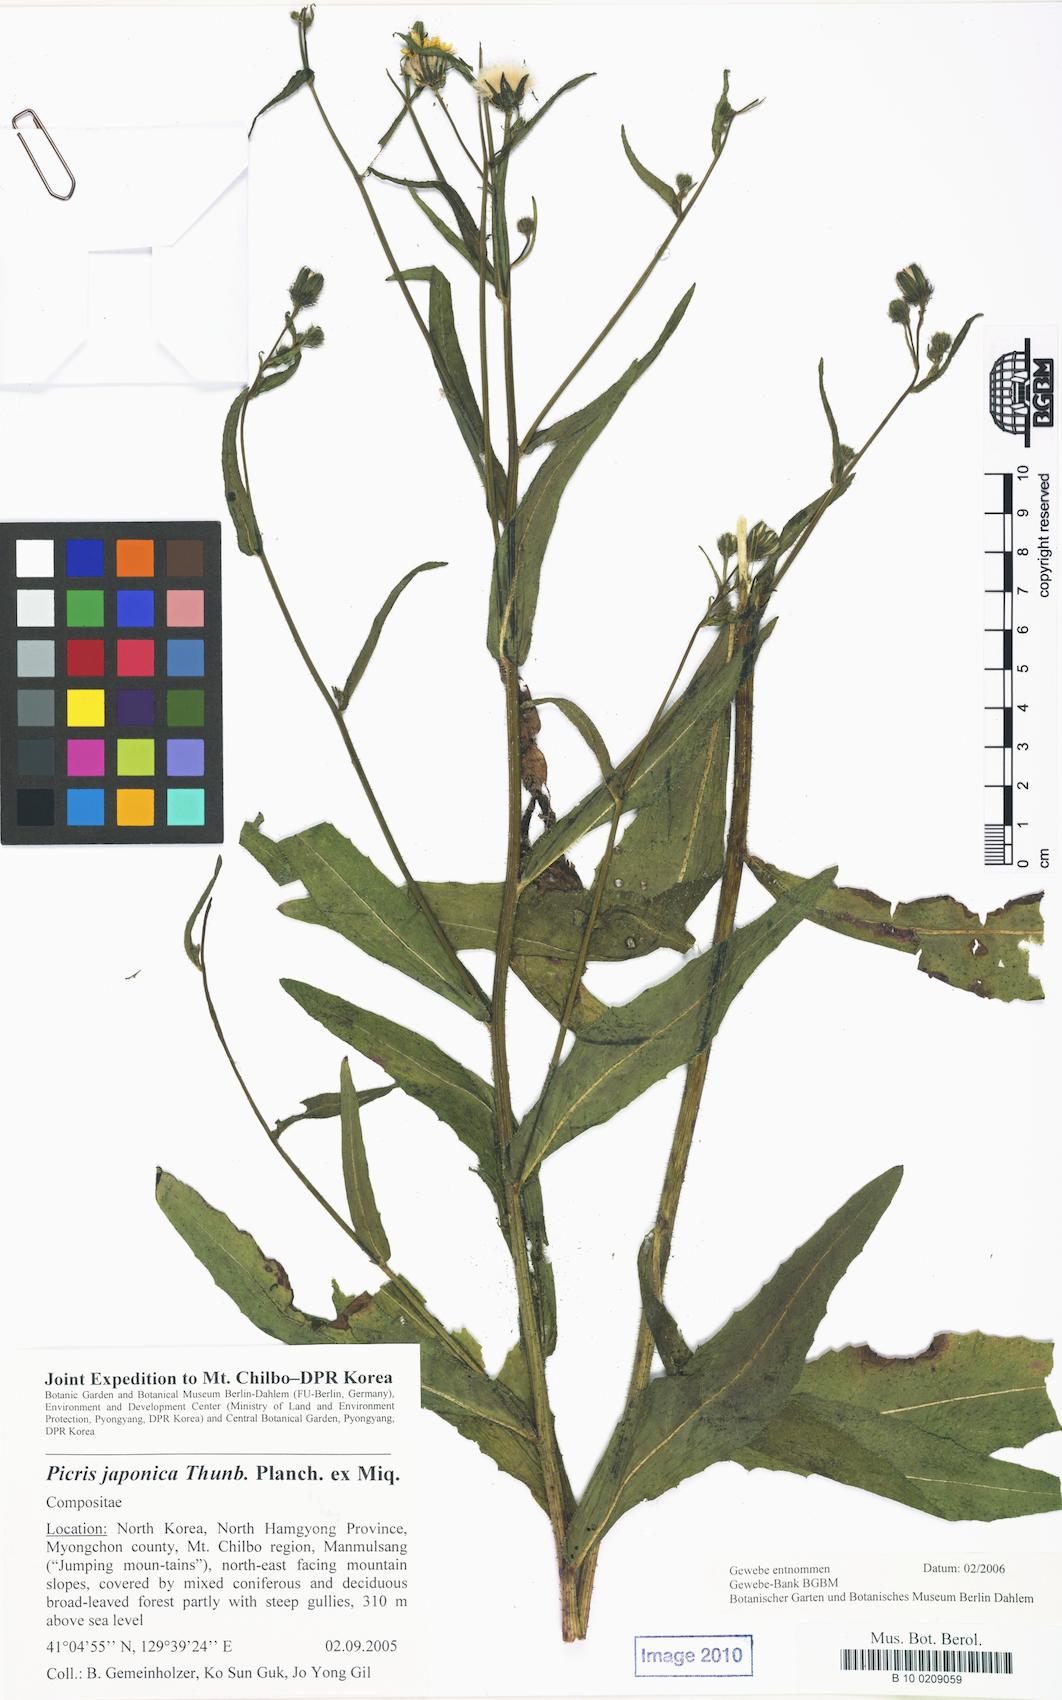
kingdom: Plantae
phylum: Tracheophyta
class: Magnoliopsida
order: Asterales
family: Asteraceae
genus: Picris
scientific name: Picris japonica
